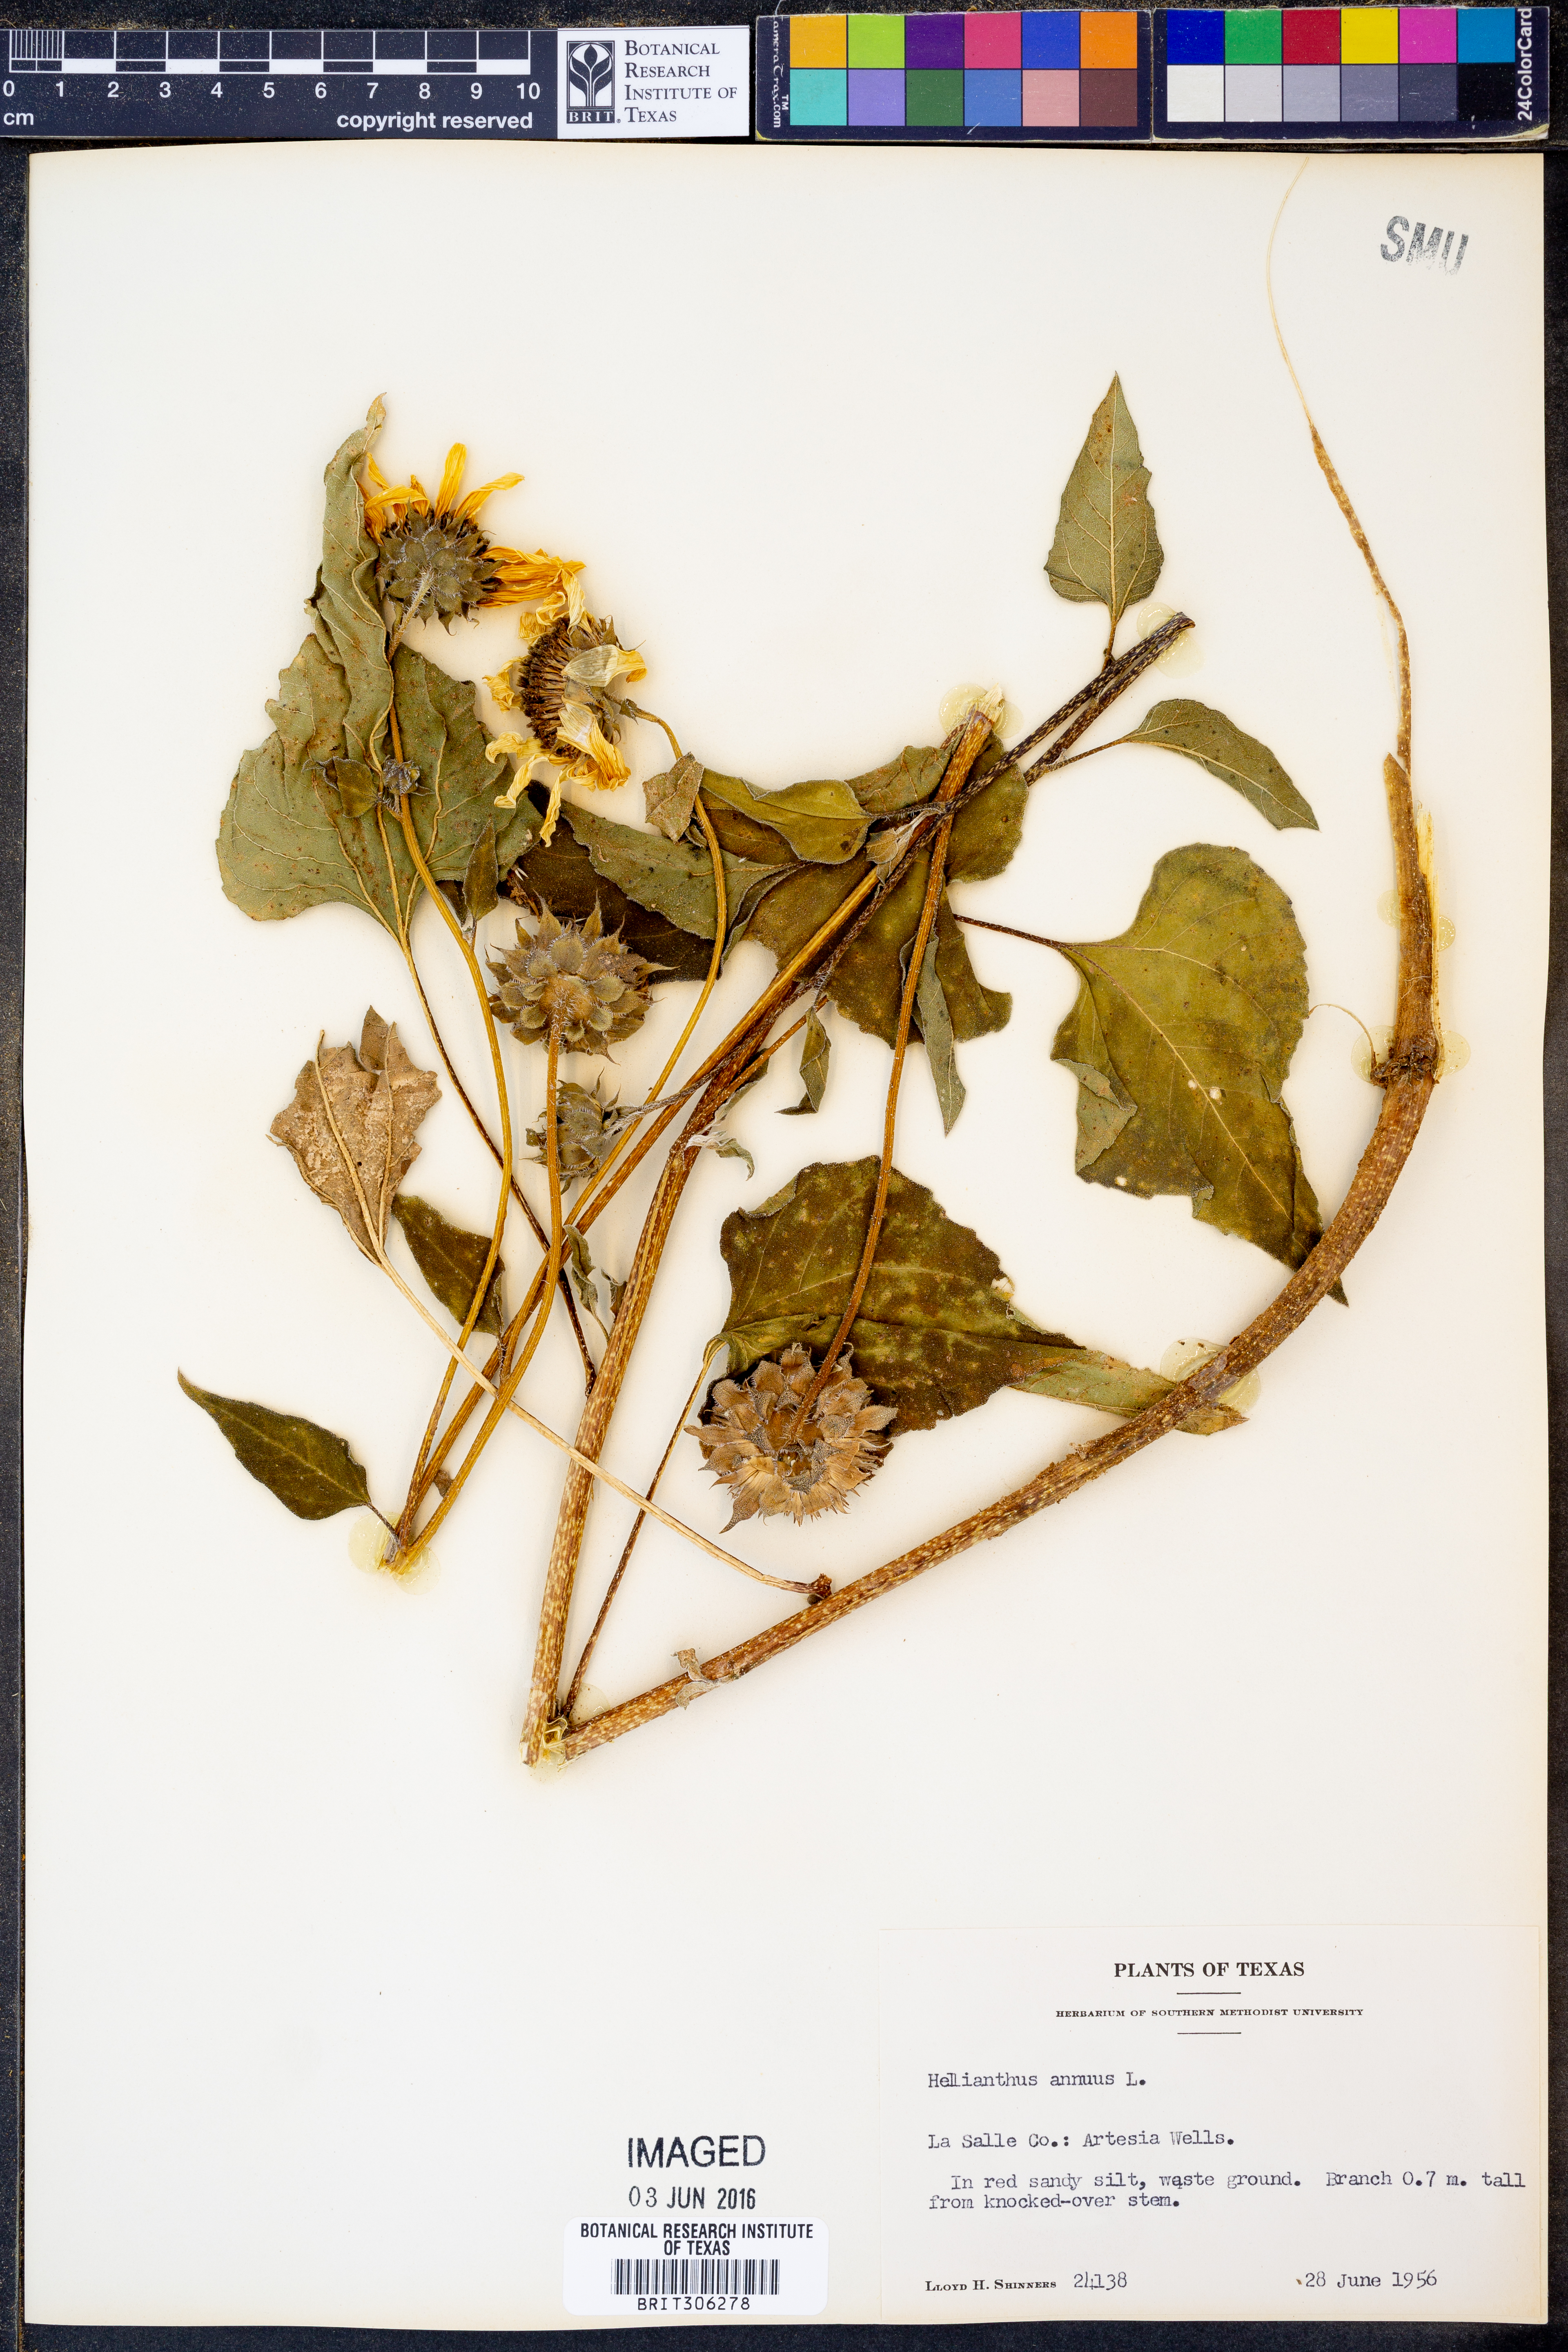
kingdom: Plantae
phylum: Tracheophyta
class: Magnoliopsida
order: Asterales
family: Asteraceae
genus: Helianthus
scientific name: Helianthus annuus
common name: Sunflower
